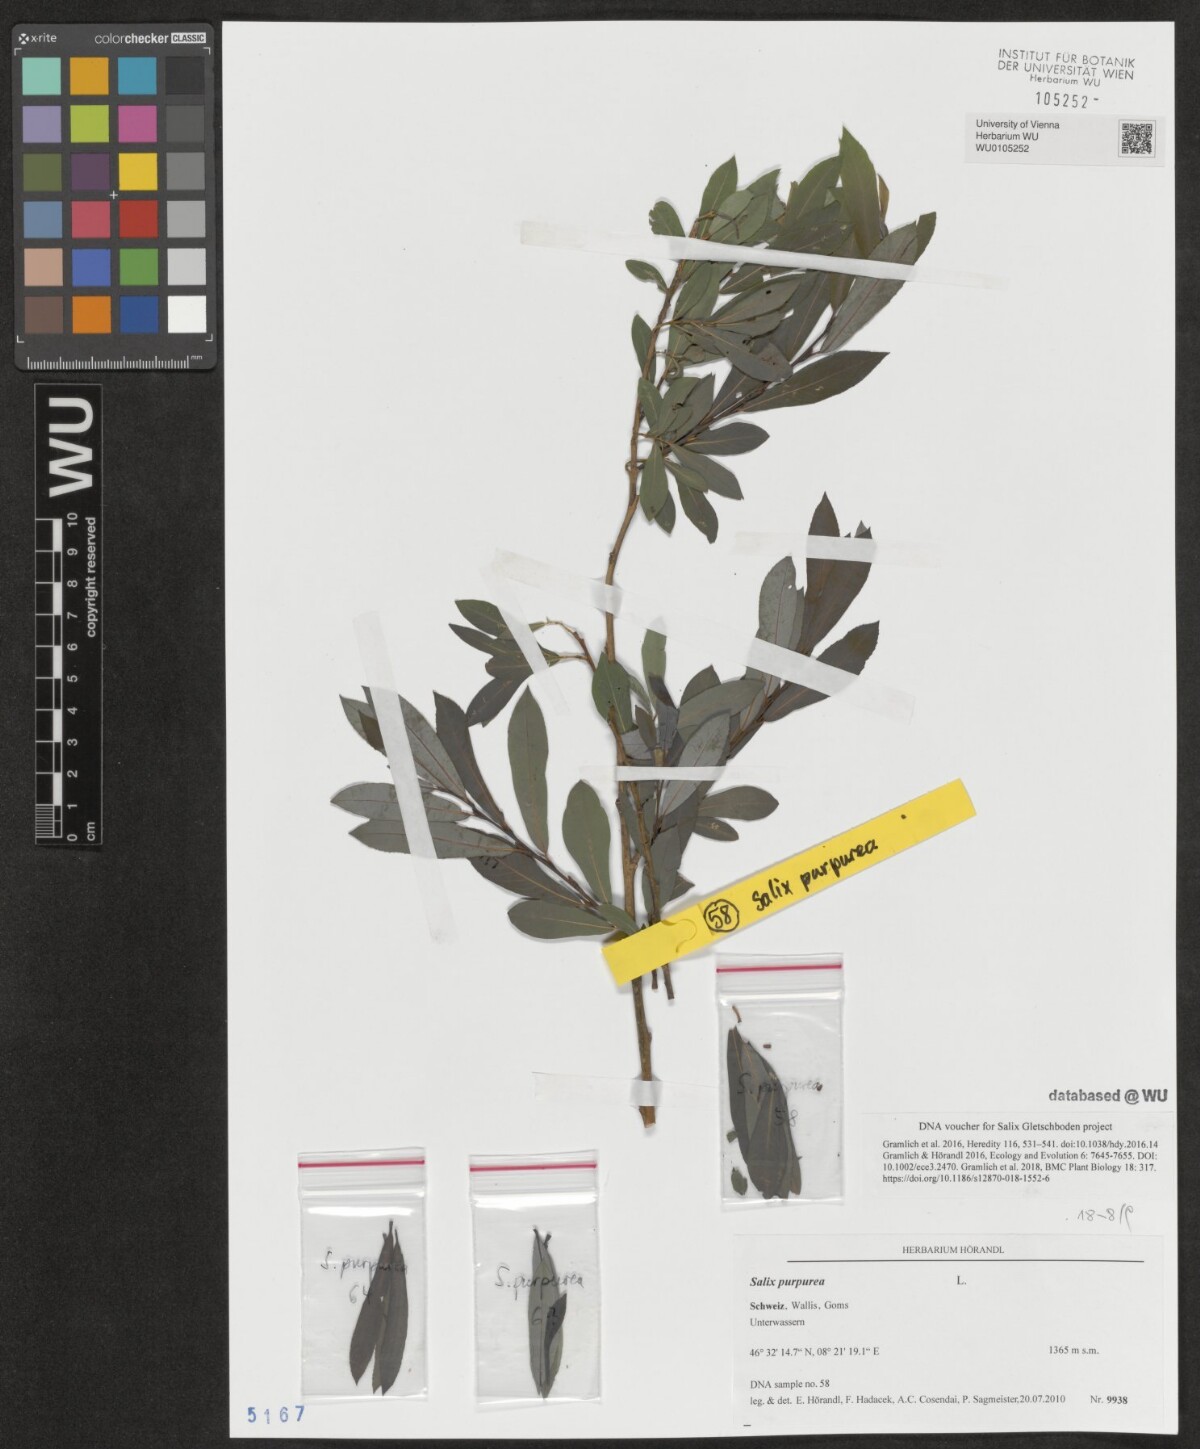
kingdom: Plantae
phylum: Tracheophyta
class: Magnoliopsida
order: Malpighiales
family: Salicaceae
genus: Salix
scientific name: Salix purpurea
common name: Purple willow
